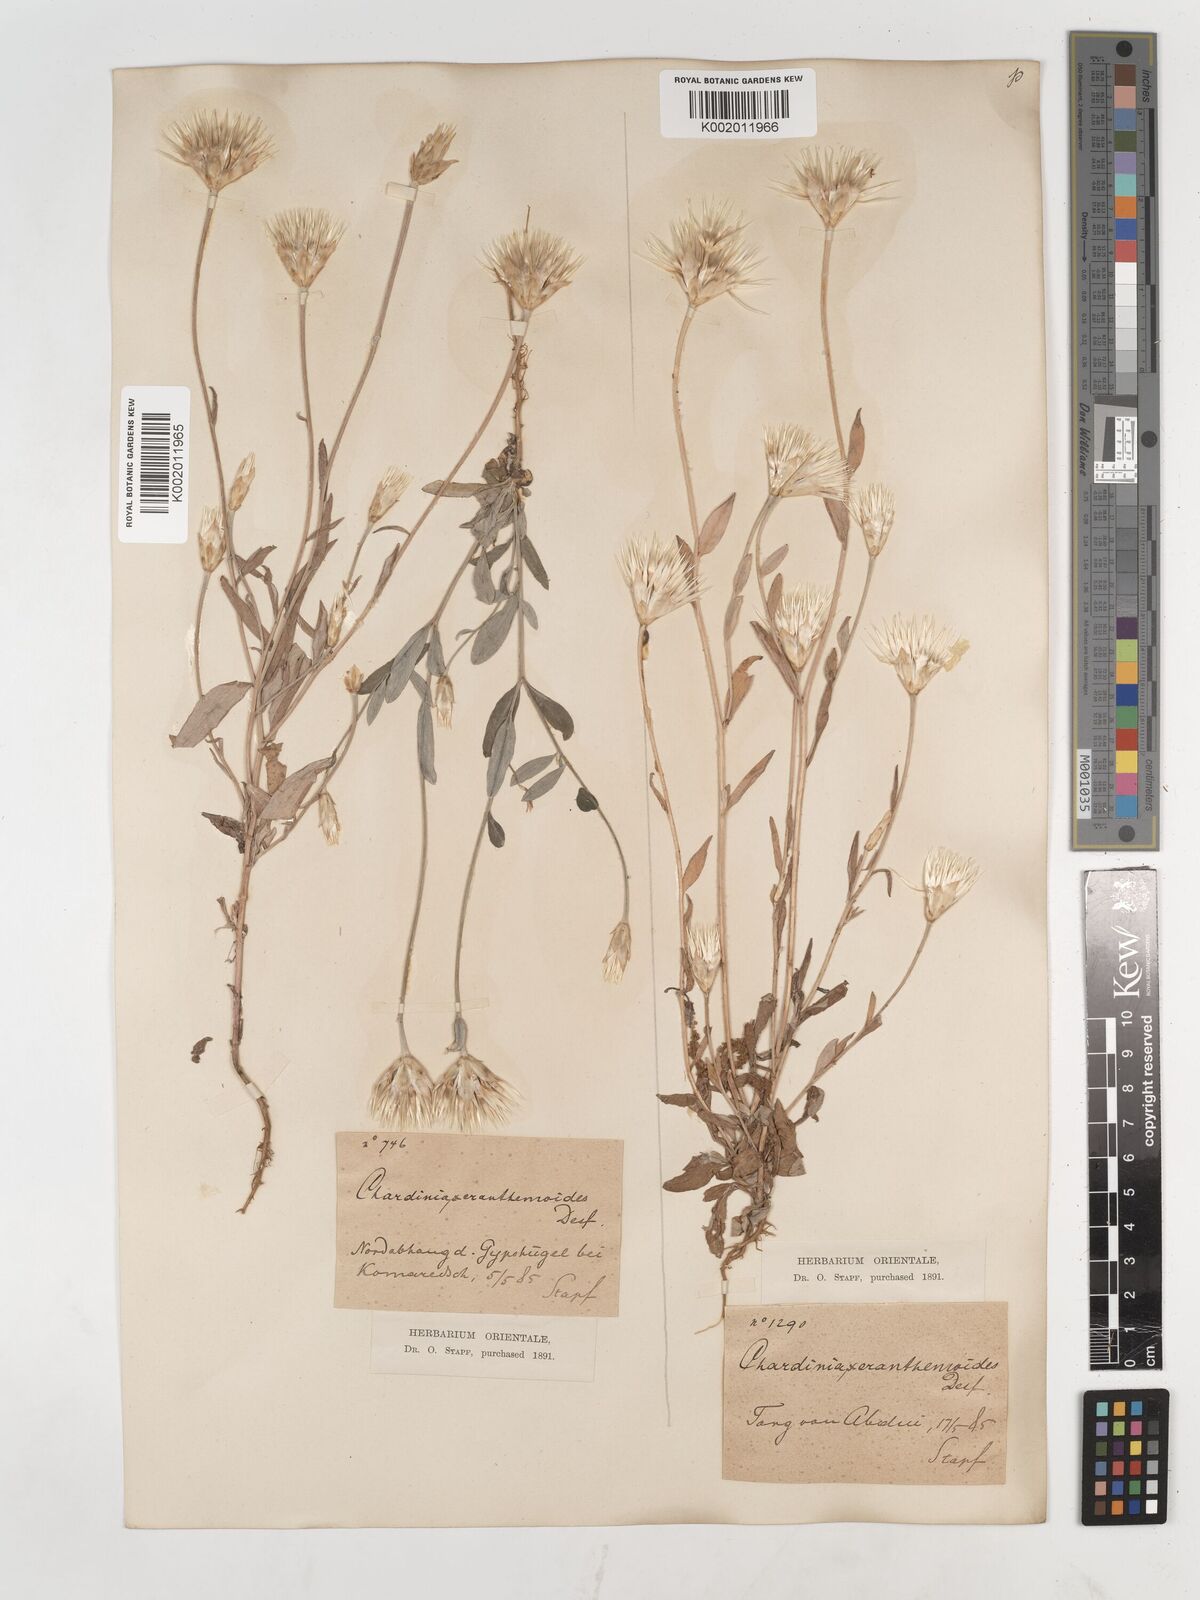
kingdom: Plantae
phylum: Tracheophyta
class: Magnoliopsida
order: Asterales
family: Asteraceae
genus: Chardinia
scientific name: Chardinia orientalis
